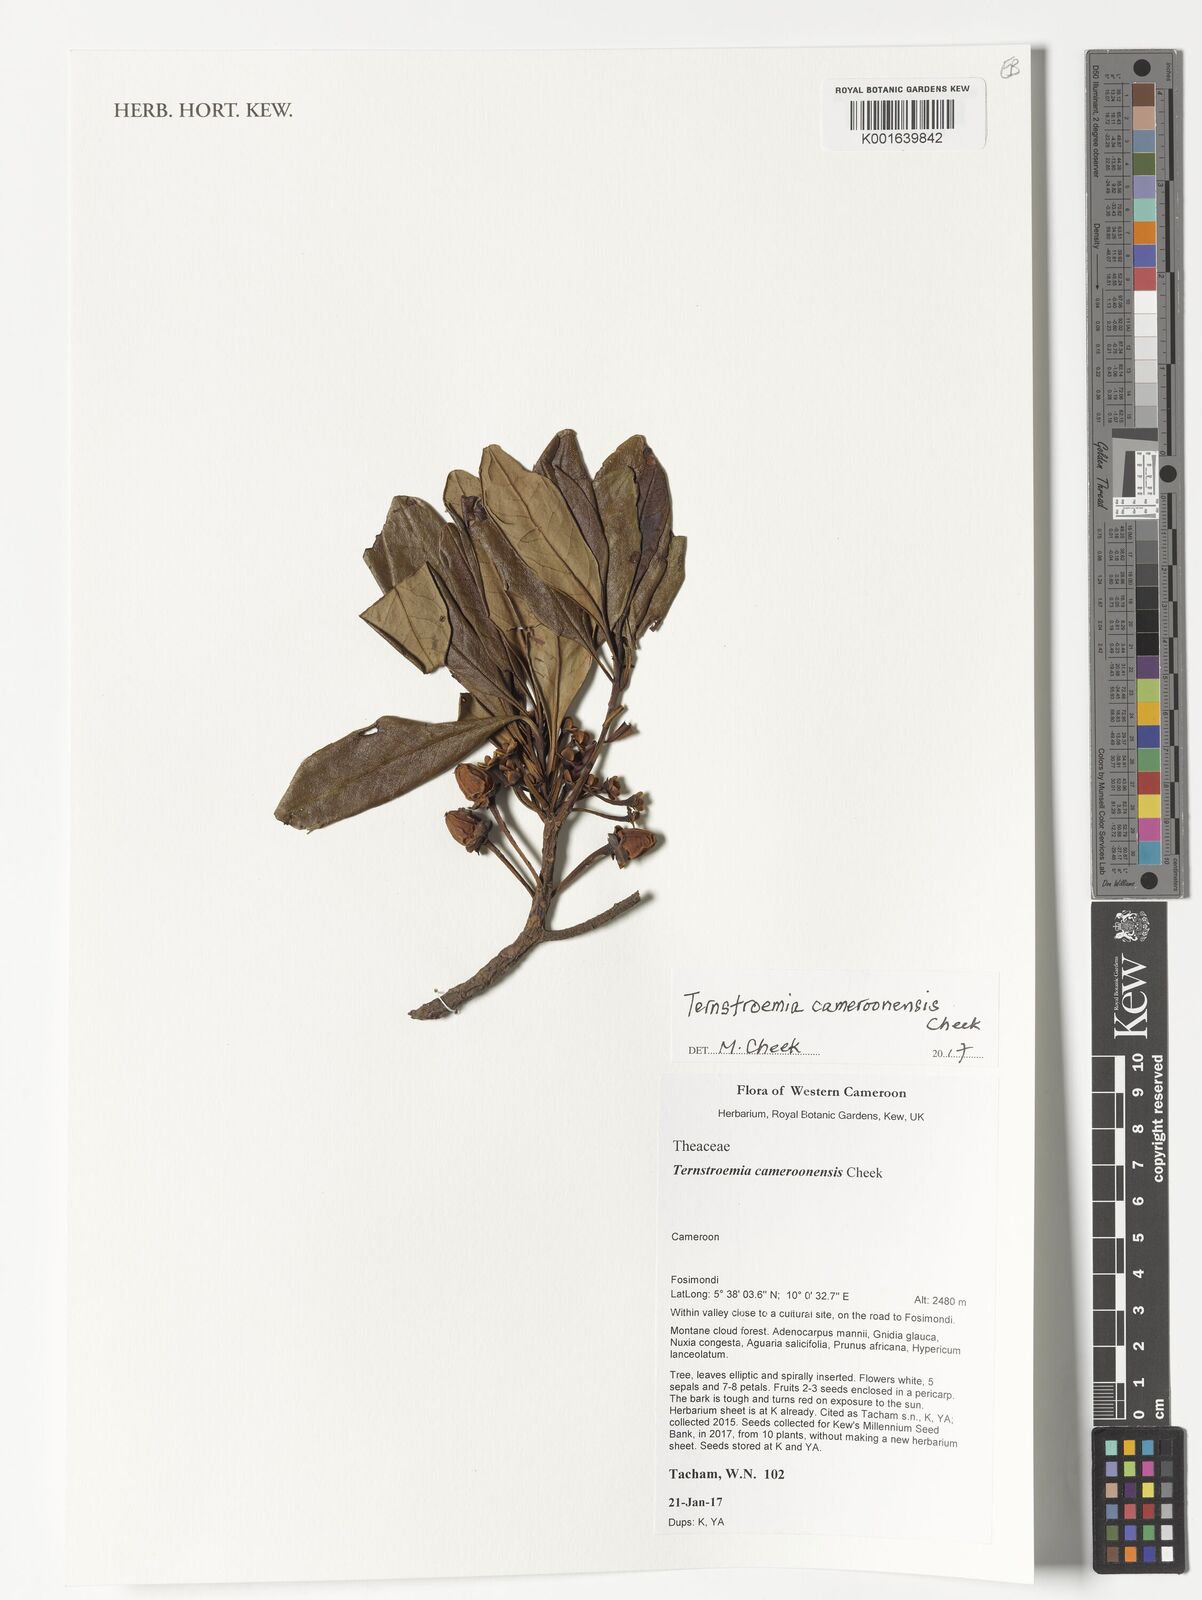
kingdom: Plantae
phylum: Tracheophyta
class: Magnoliopsida
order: Ericales
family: Pentaphylacaceae
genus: Ternstroemia
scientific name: Ternstroemia cameroonensis
